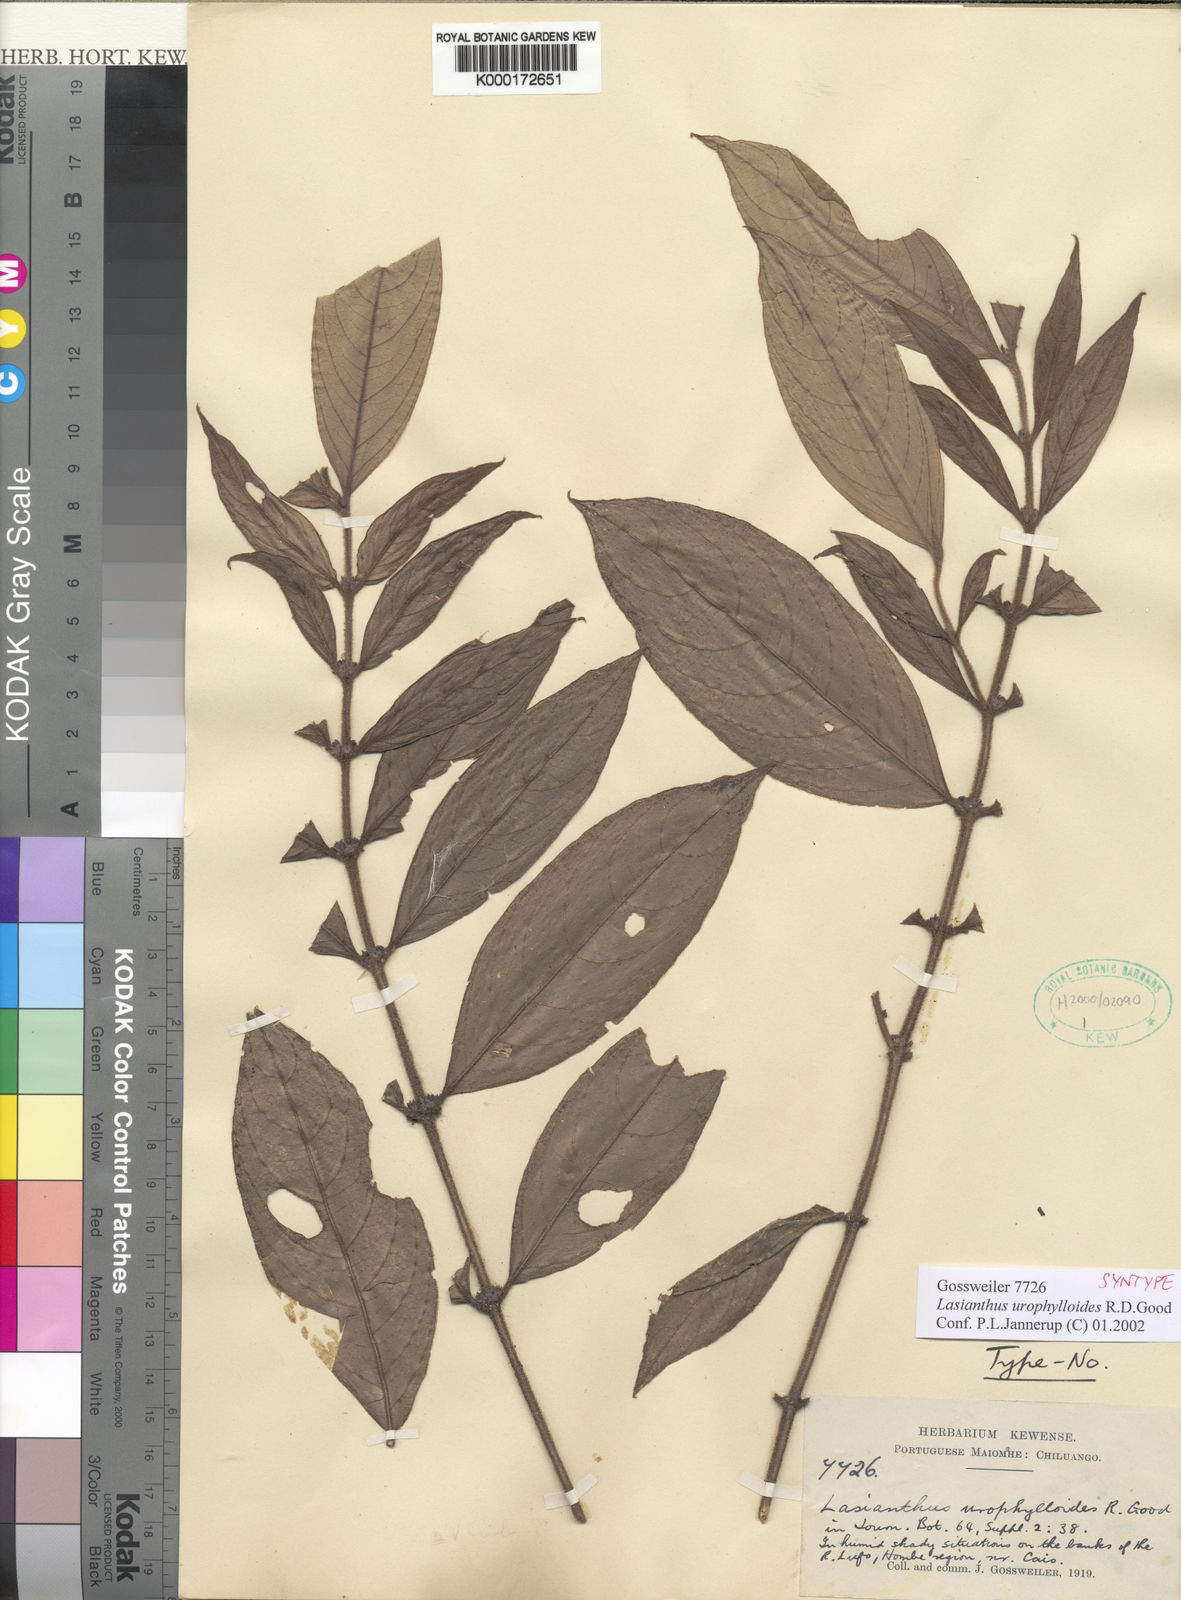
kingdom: Plantae
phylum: Tracheophyta
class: Magnoliopsida
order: Gentianales
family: Rubiaceae
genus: Lasianthus
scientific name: Lasianthus urophylloides
